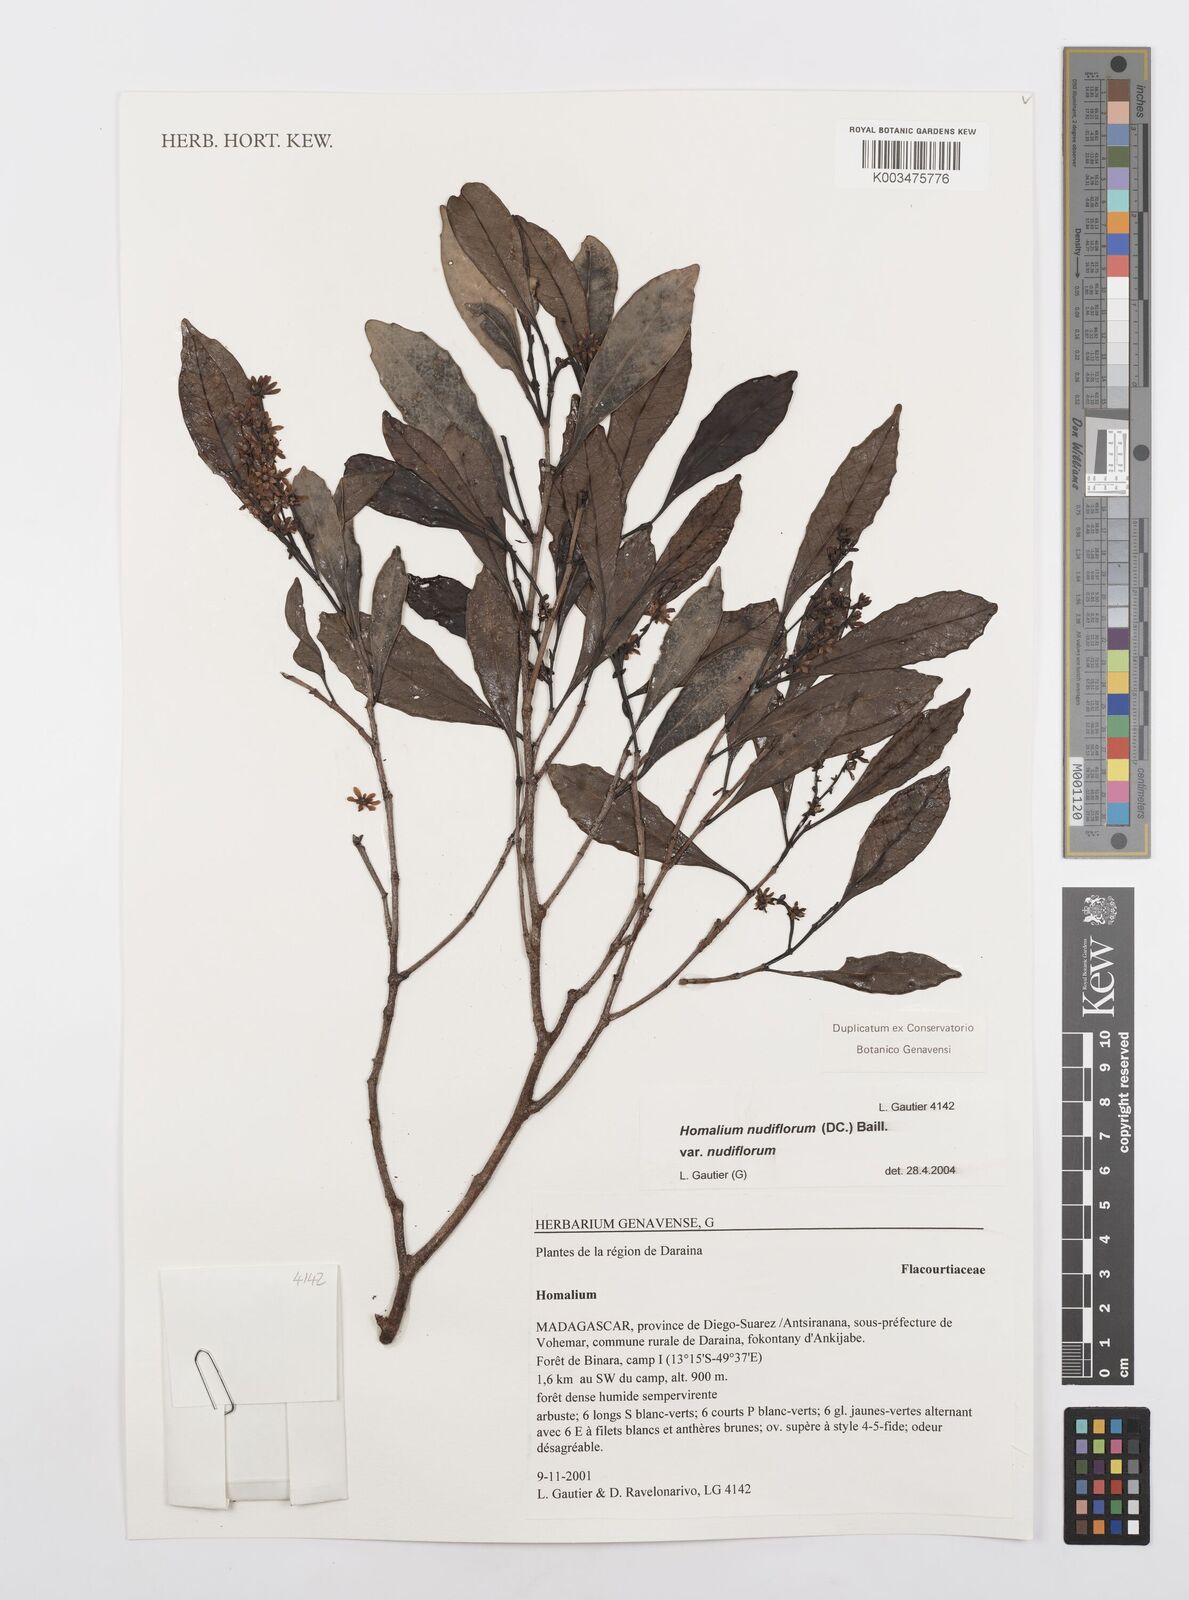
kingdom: Plantae
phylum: Tracheophyta
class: Magnoliopsida
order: Malpighiales
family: Salicaceae
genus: Homalium
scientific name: Homalium nudiflorum
